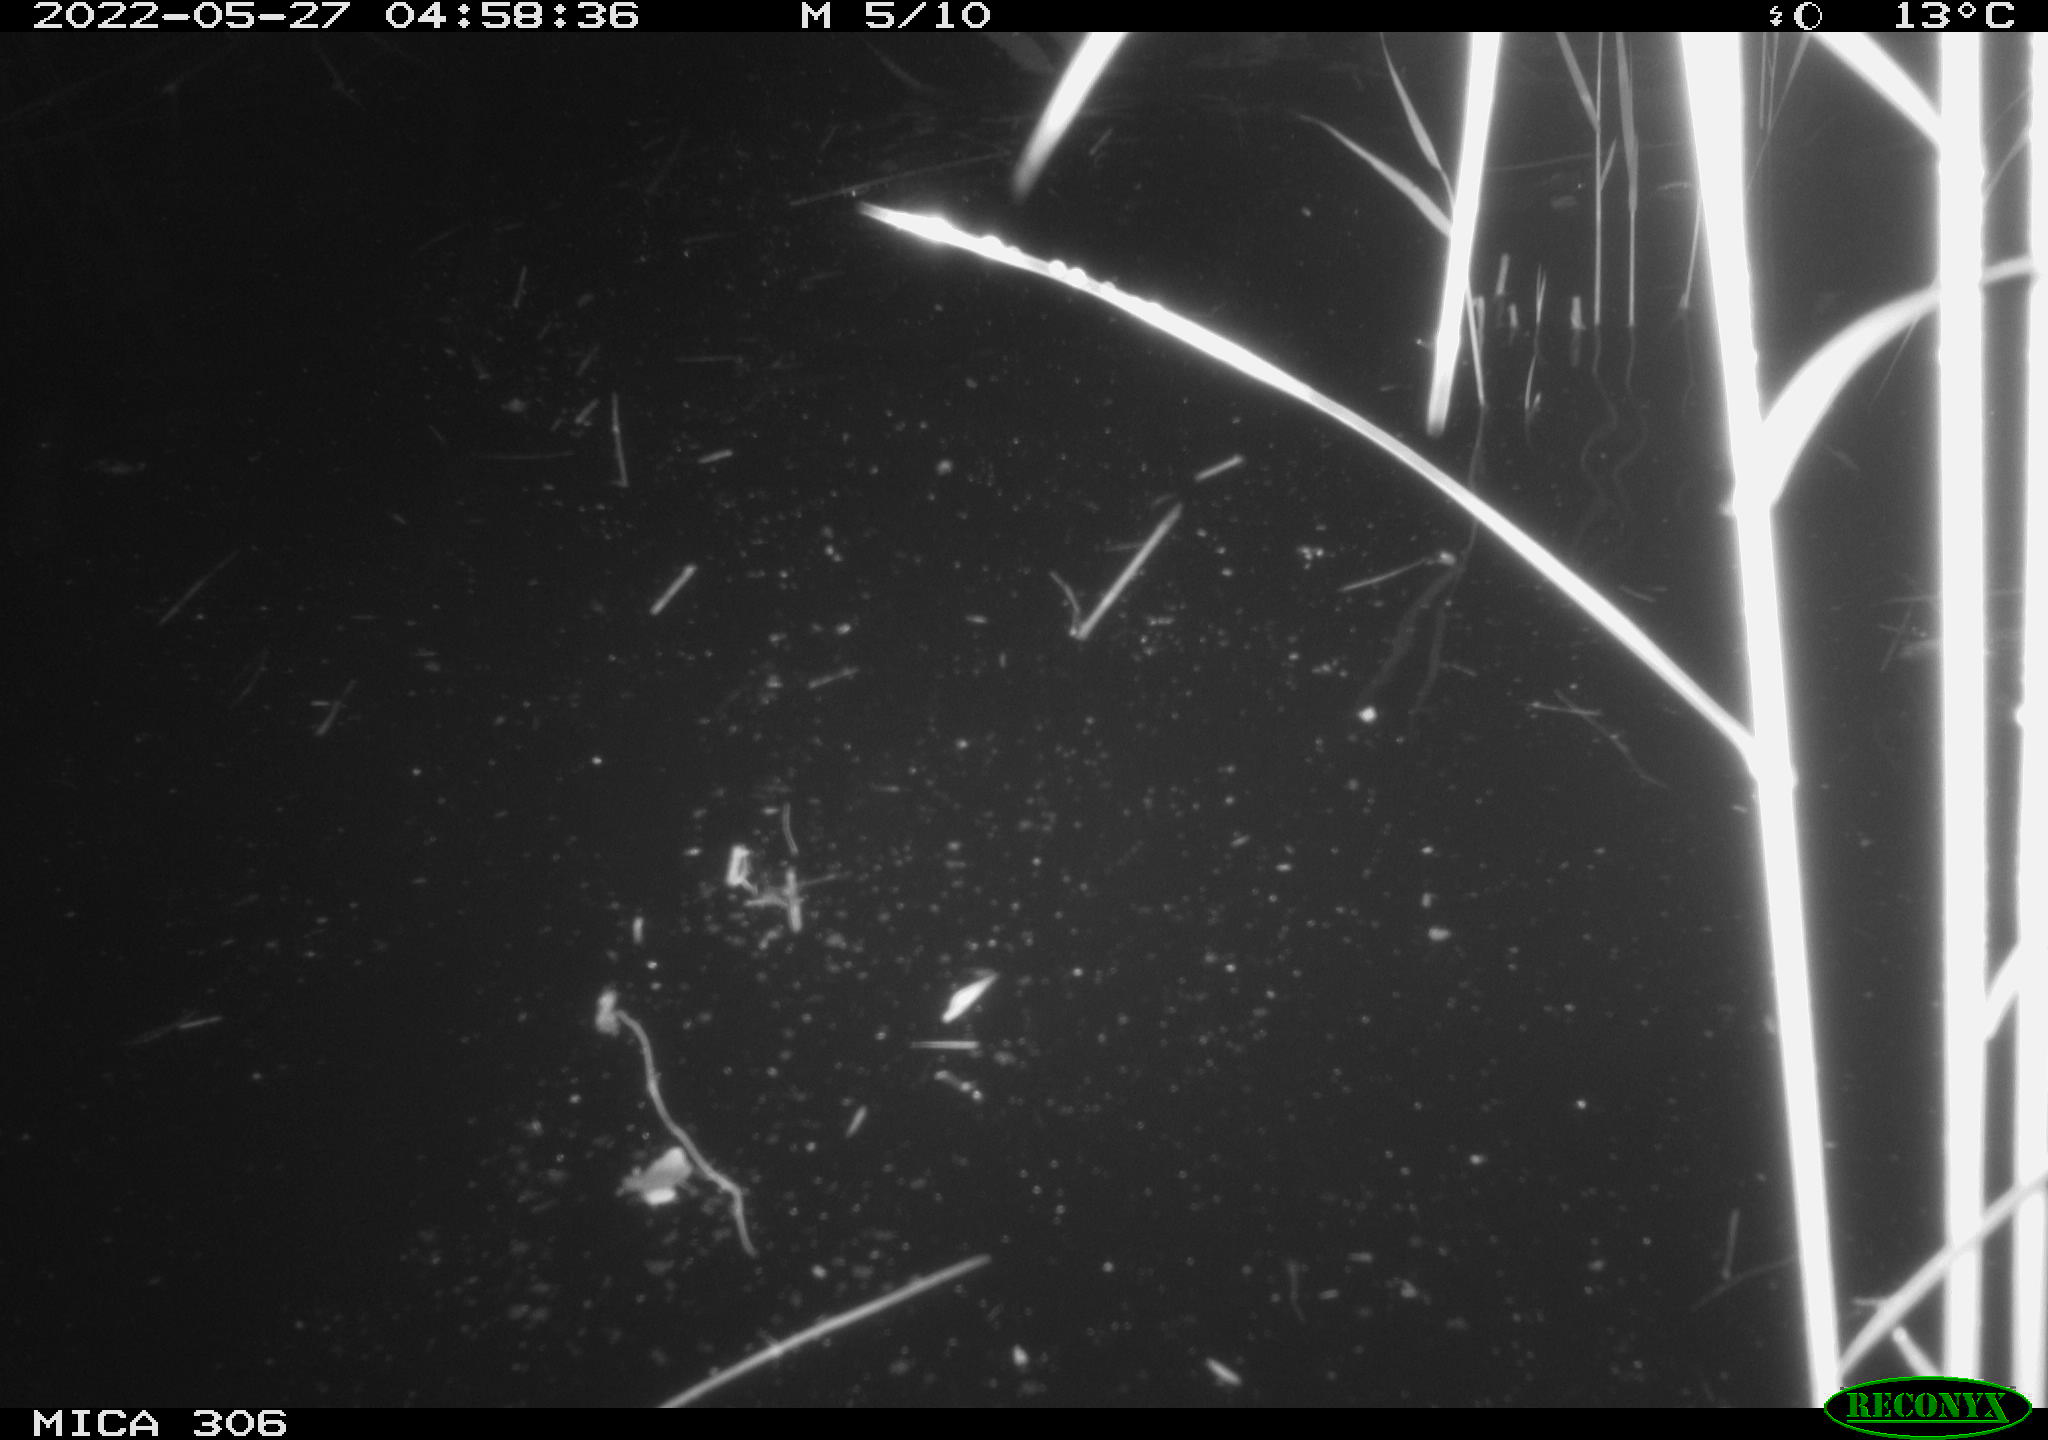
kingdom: Animalia
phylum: Chordata
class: Mammalia
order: Rodentia
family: Muridae
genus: Rattus
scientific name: Rattus norvegicus
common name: Brown rat
